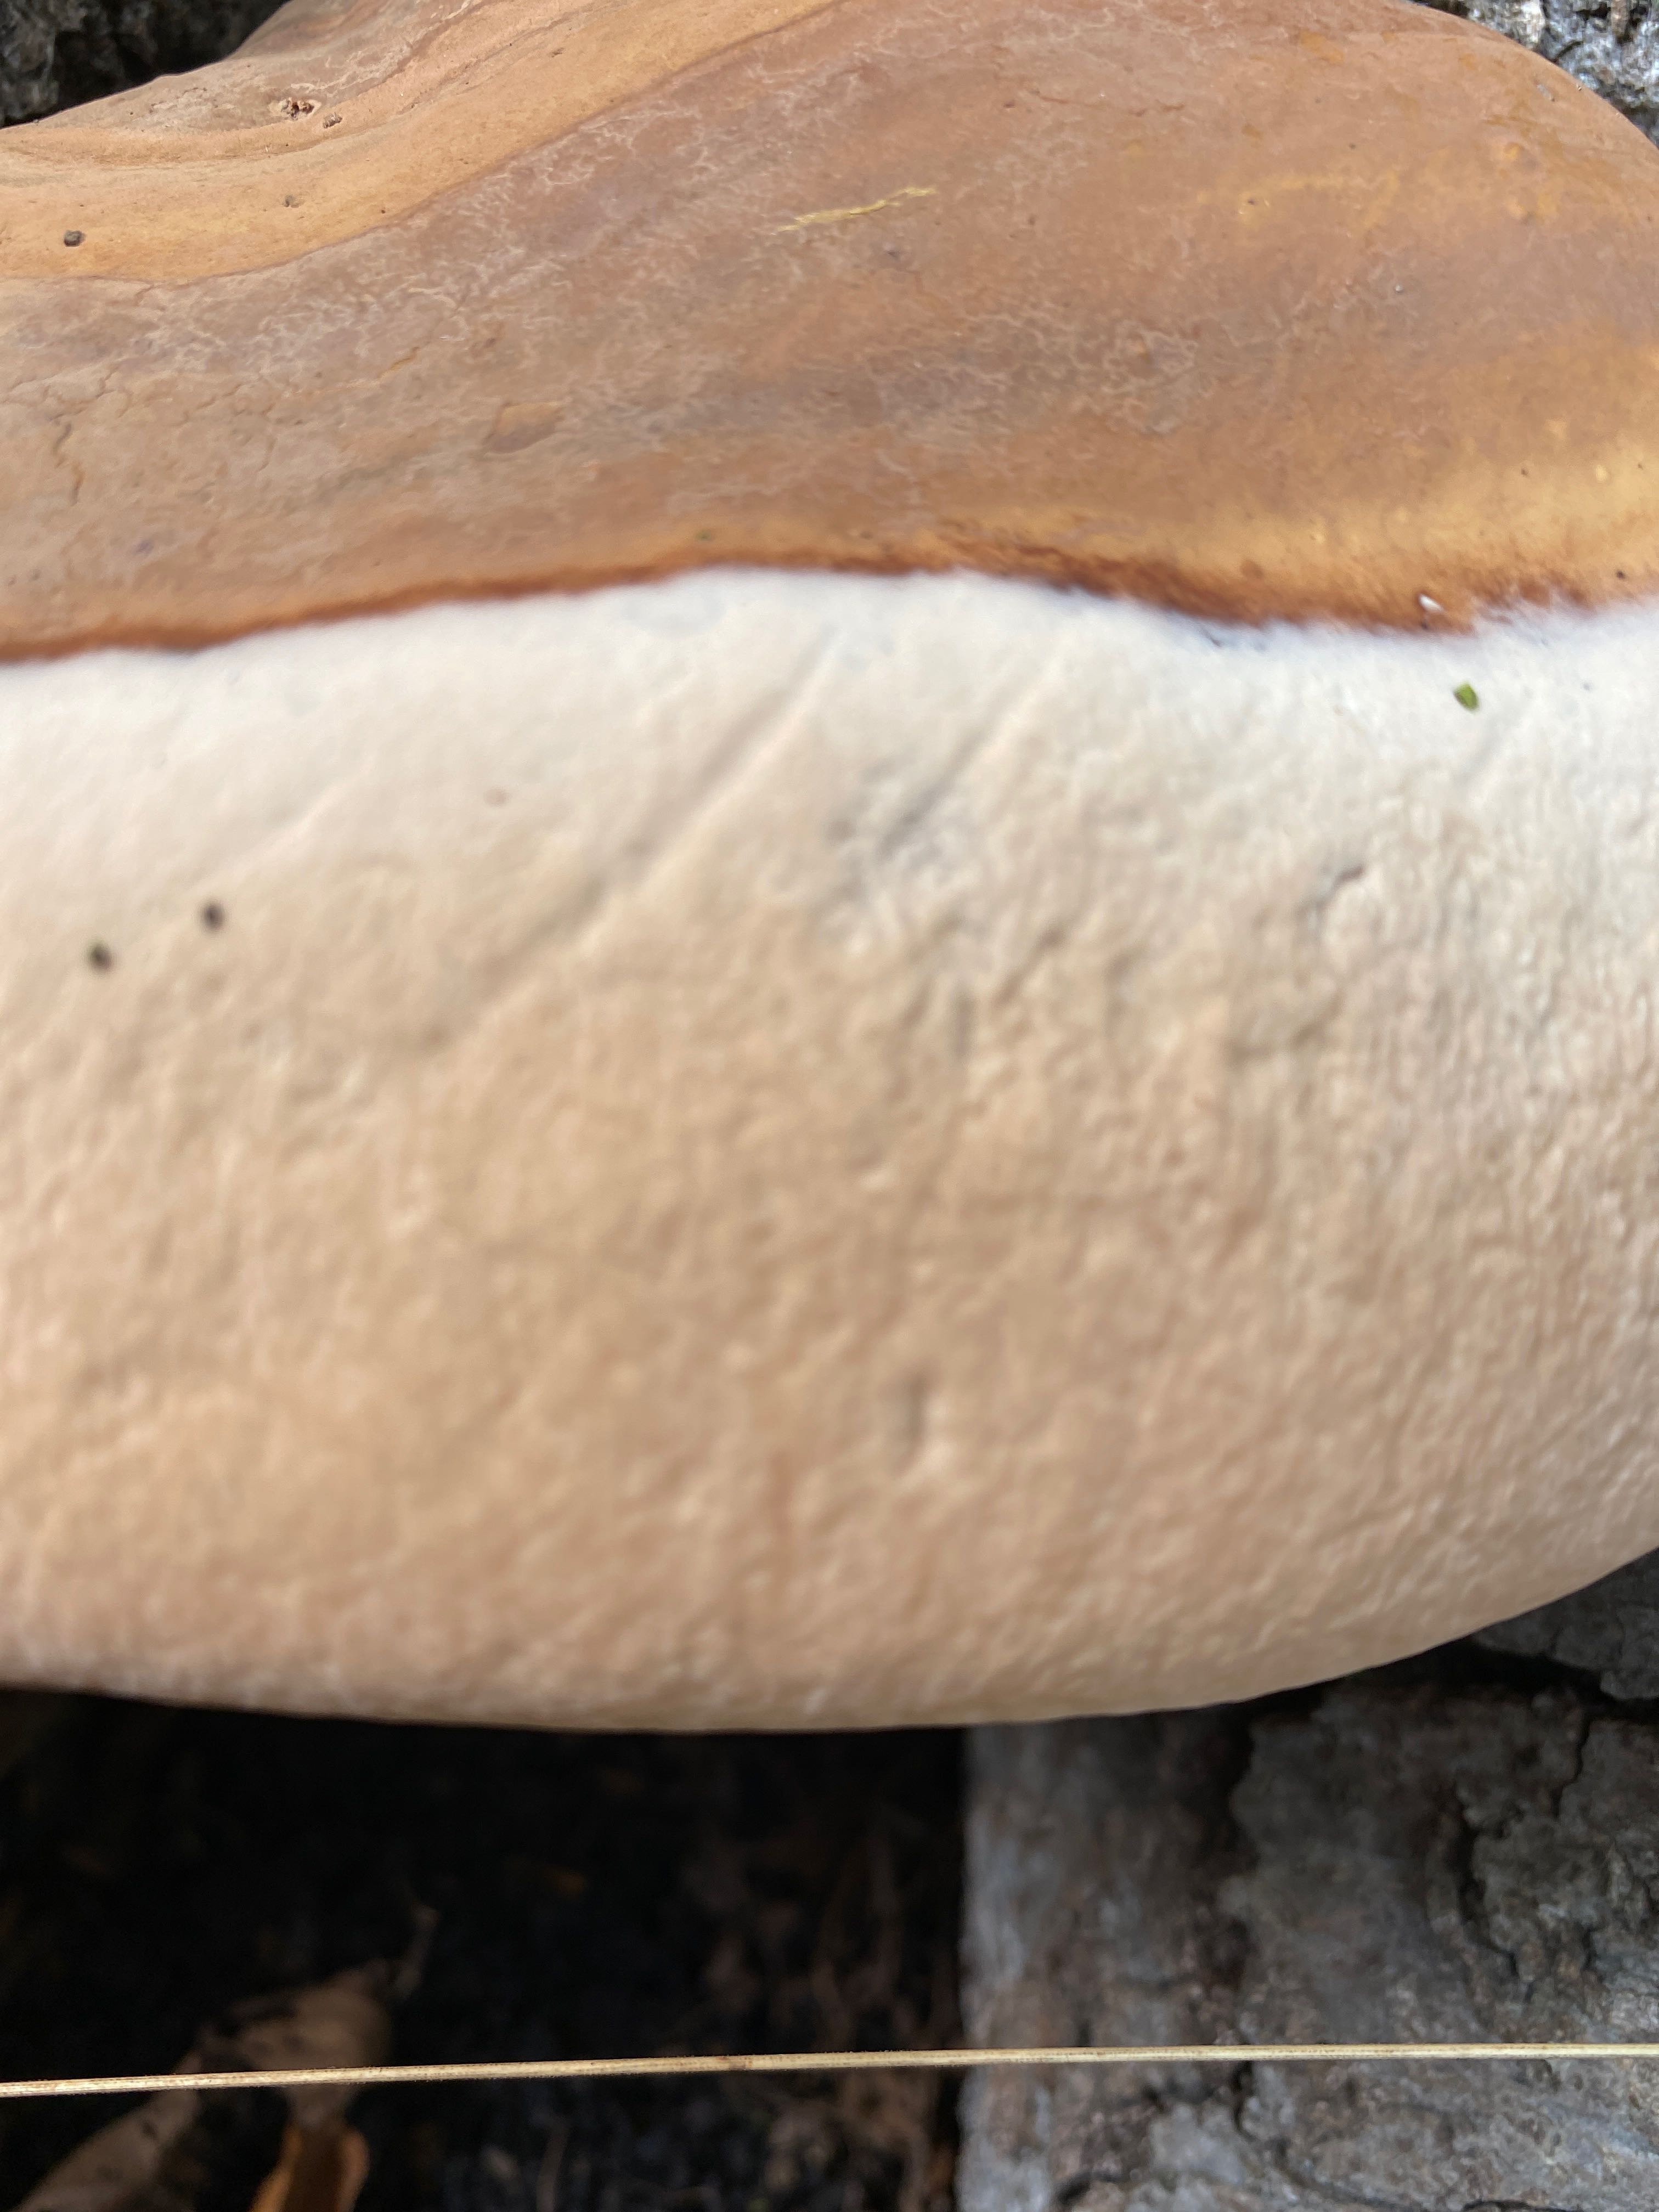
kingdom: Fungi
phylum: Basidiomycota
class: Agaricomycetes
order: Polyporales
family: Polyporaceae
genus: Ganoderma
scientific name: Ganoderma resinaceum
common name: gyldenbrun lakporesvamp
